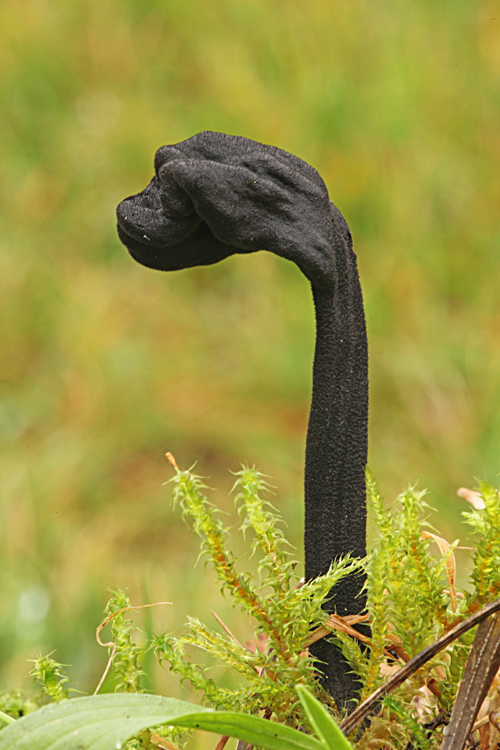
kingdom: Fungi
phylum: Ascomycota
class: Geoglossomycetes
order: Geoglossales
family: Geoglossaceae
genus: Trichoglossum
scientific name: Trichoglossum hirsutum
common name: håret jordtunge
